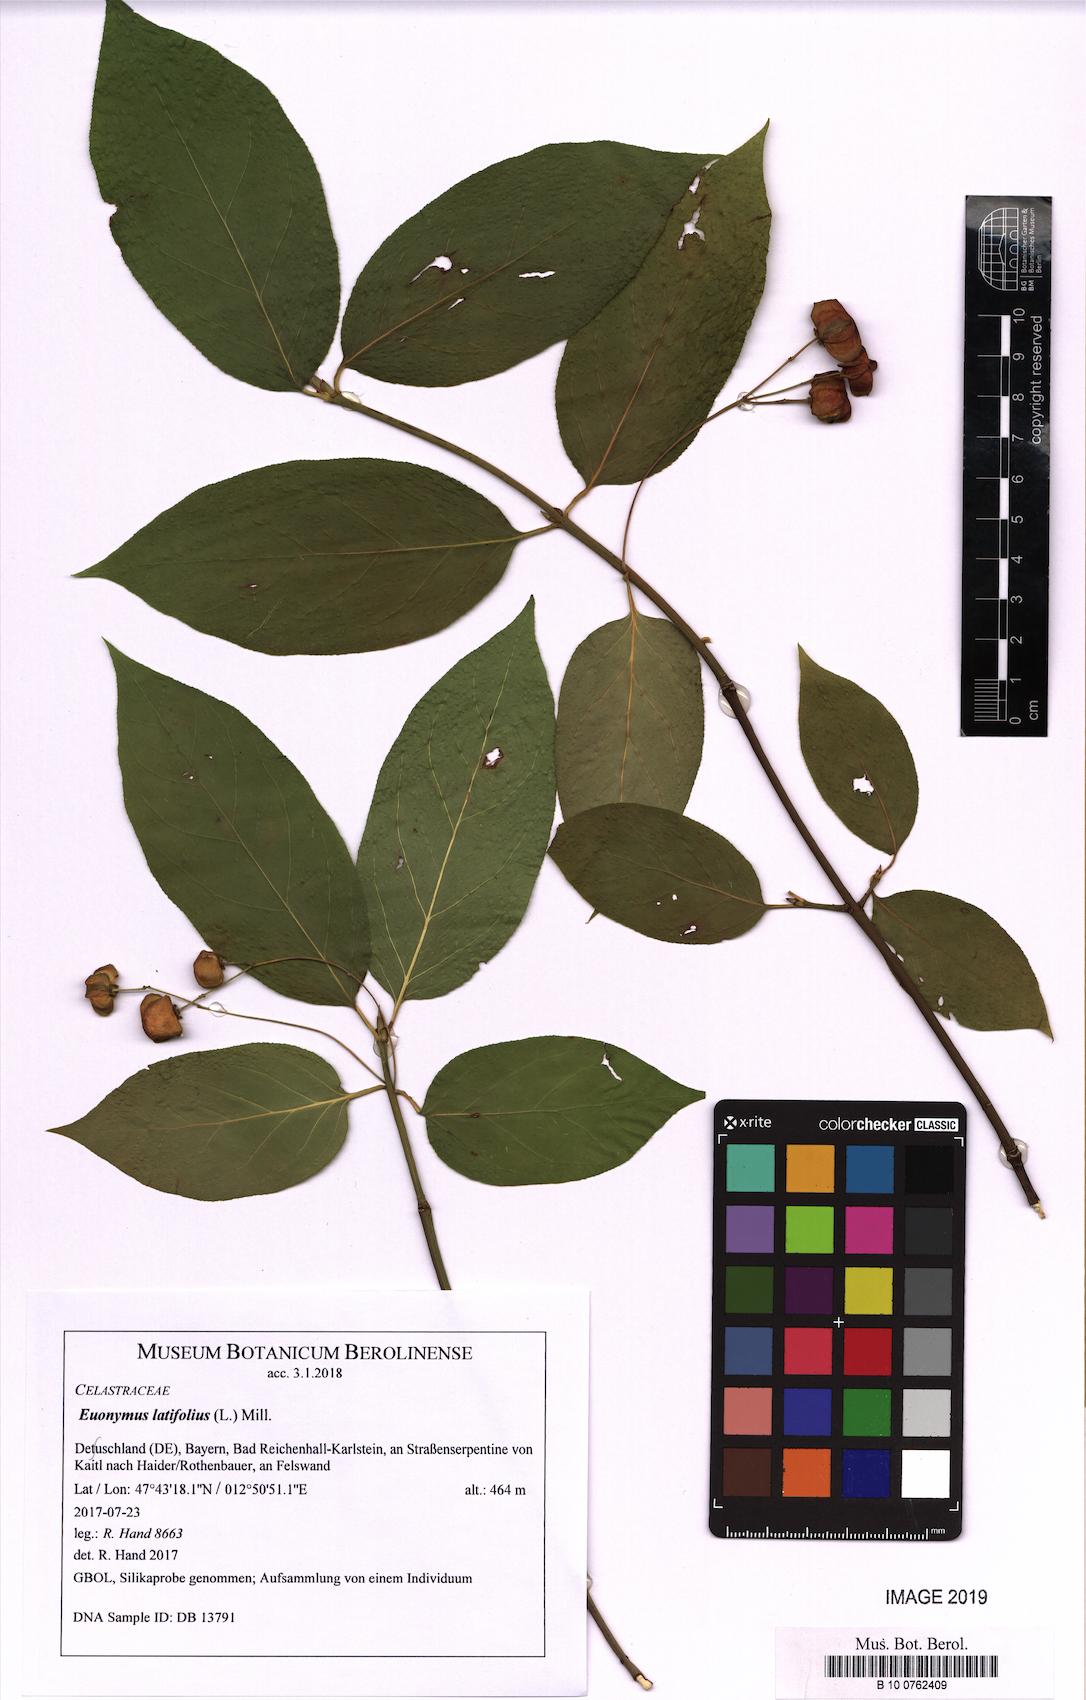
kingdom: Plantae
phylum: Tracheophyta
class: Magnoliopsida
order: Celastrales
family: Celastraceae
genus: Euonymus
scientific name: Euonymus latifolius
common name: Large-leaved spindle
